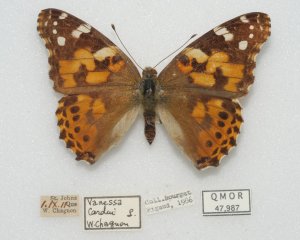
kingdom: Animalia
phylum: Arthropoda
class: Insecta
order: Lepidoptera
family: Nymphalidae
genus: Vanessa
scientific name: Vanessa cardui
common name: Painted Lady
